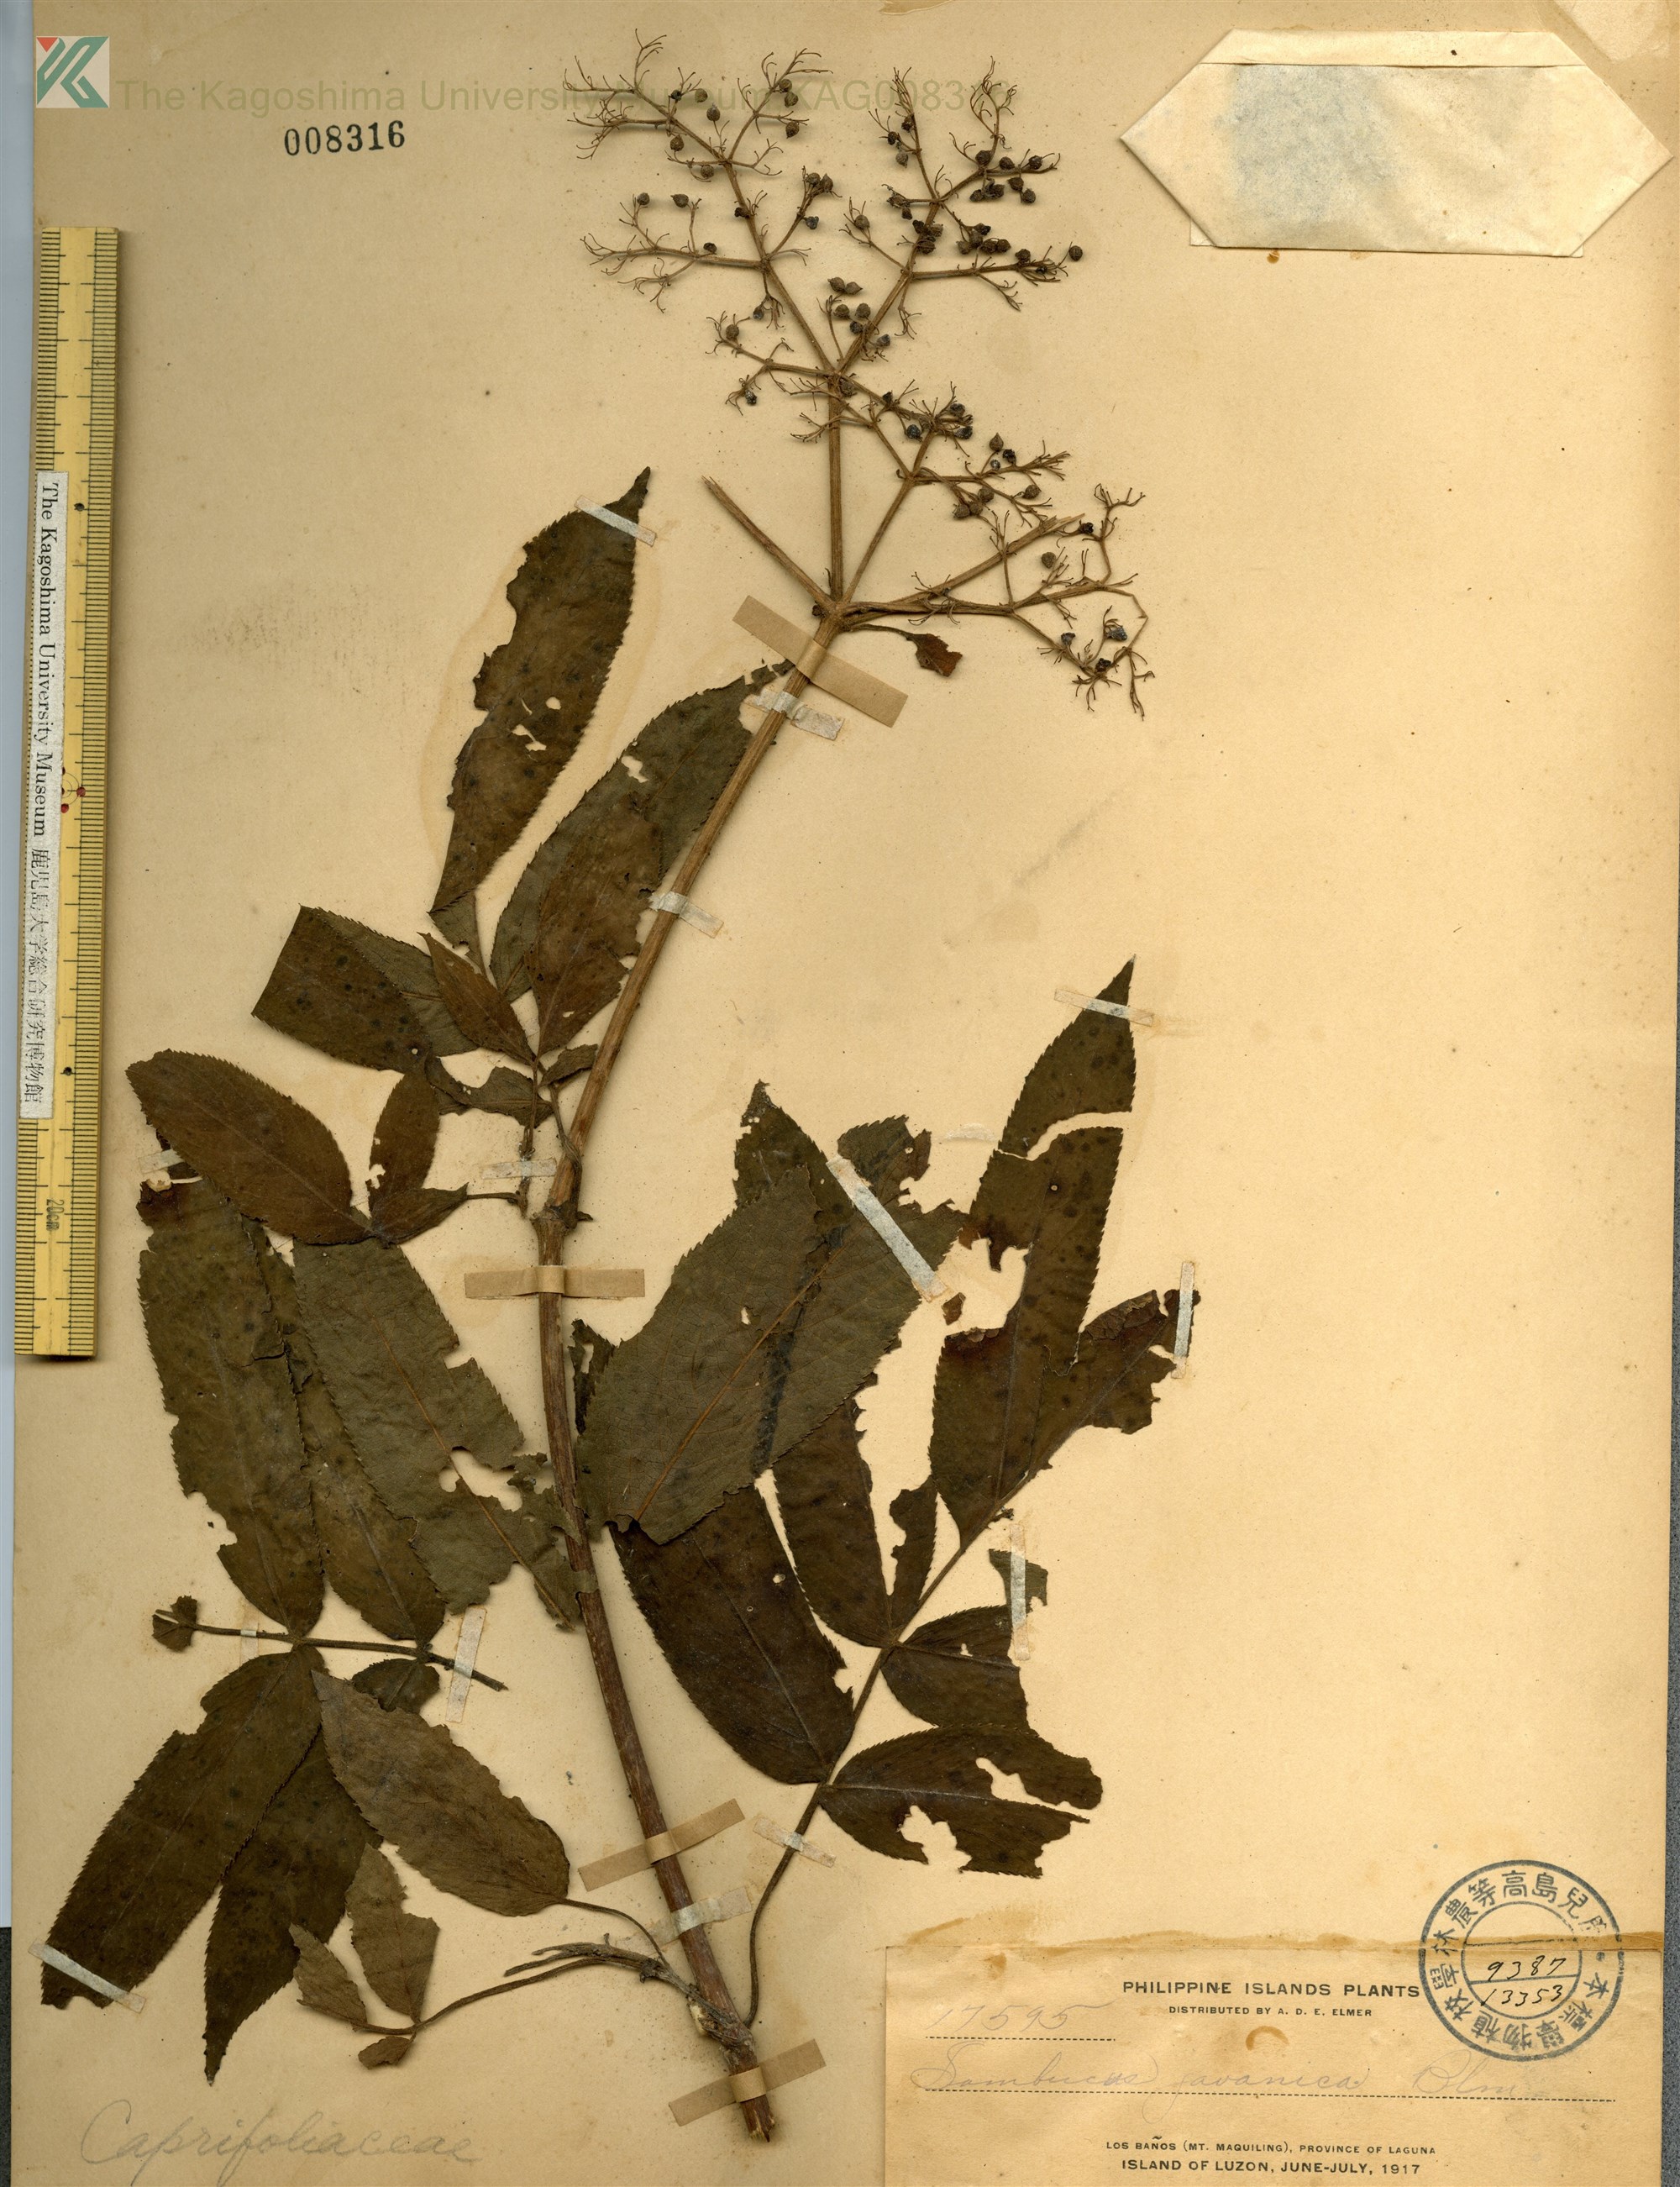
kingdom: Plantae
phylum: Tracheophyta
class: Magnoliopsida
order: Dipsacales
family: Viburnaceae
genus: Sambucus
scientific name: Sambucus javanica
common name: Chinese elder
